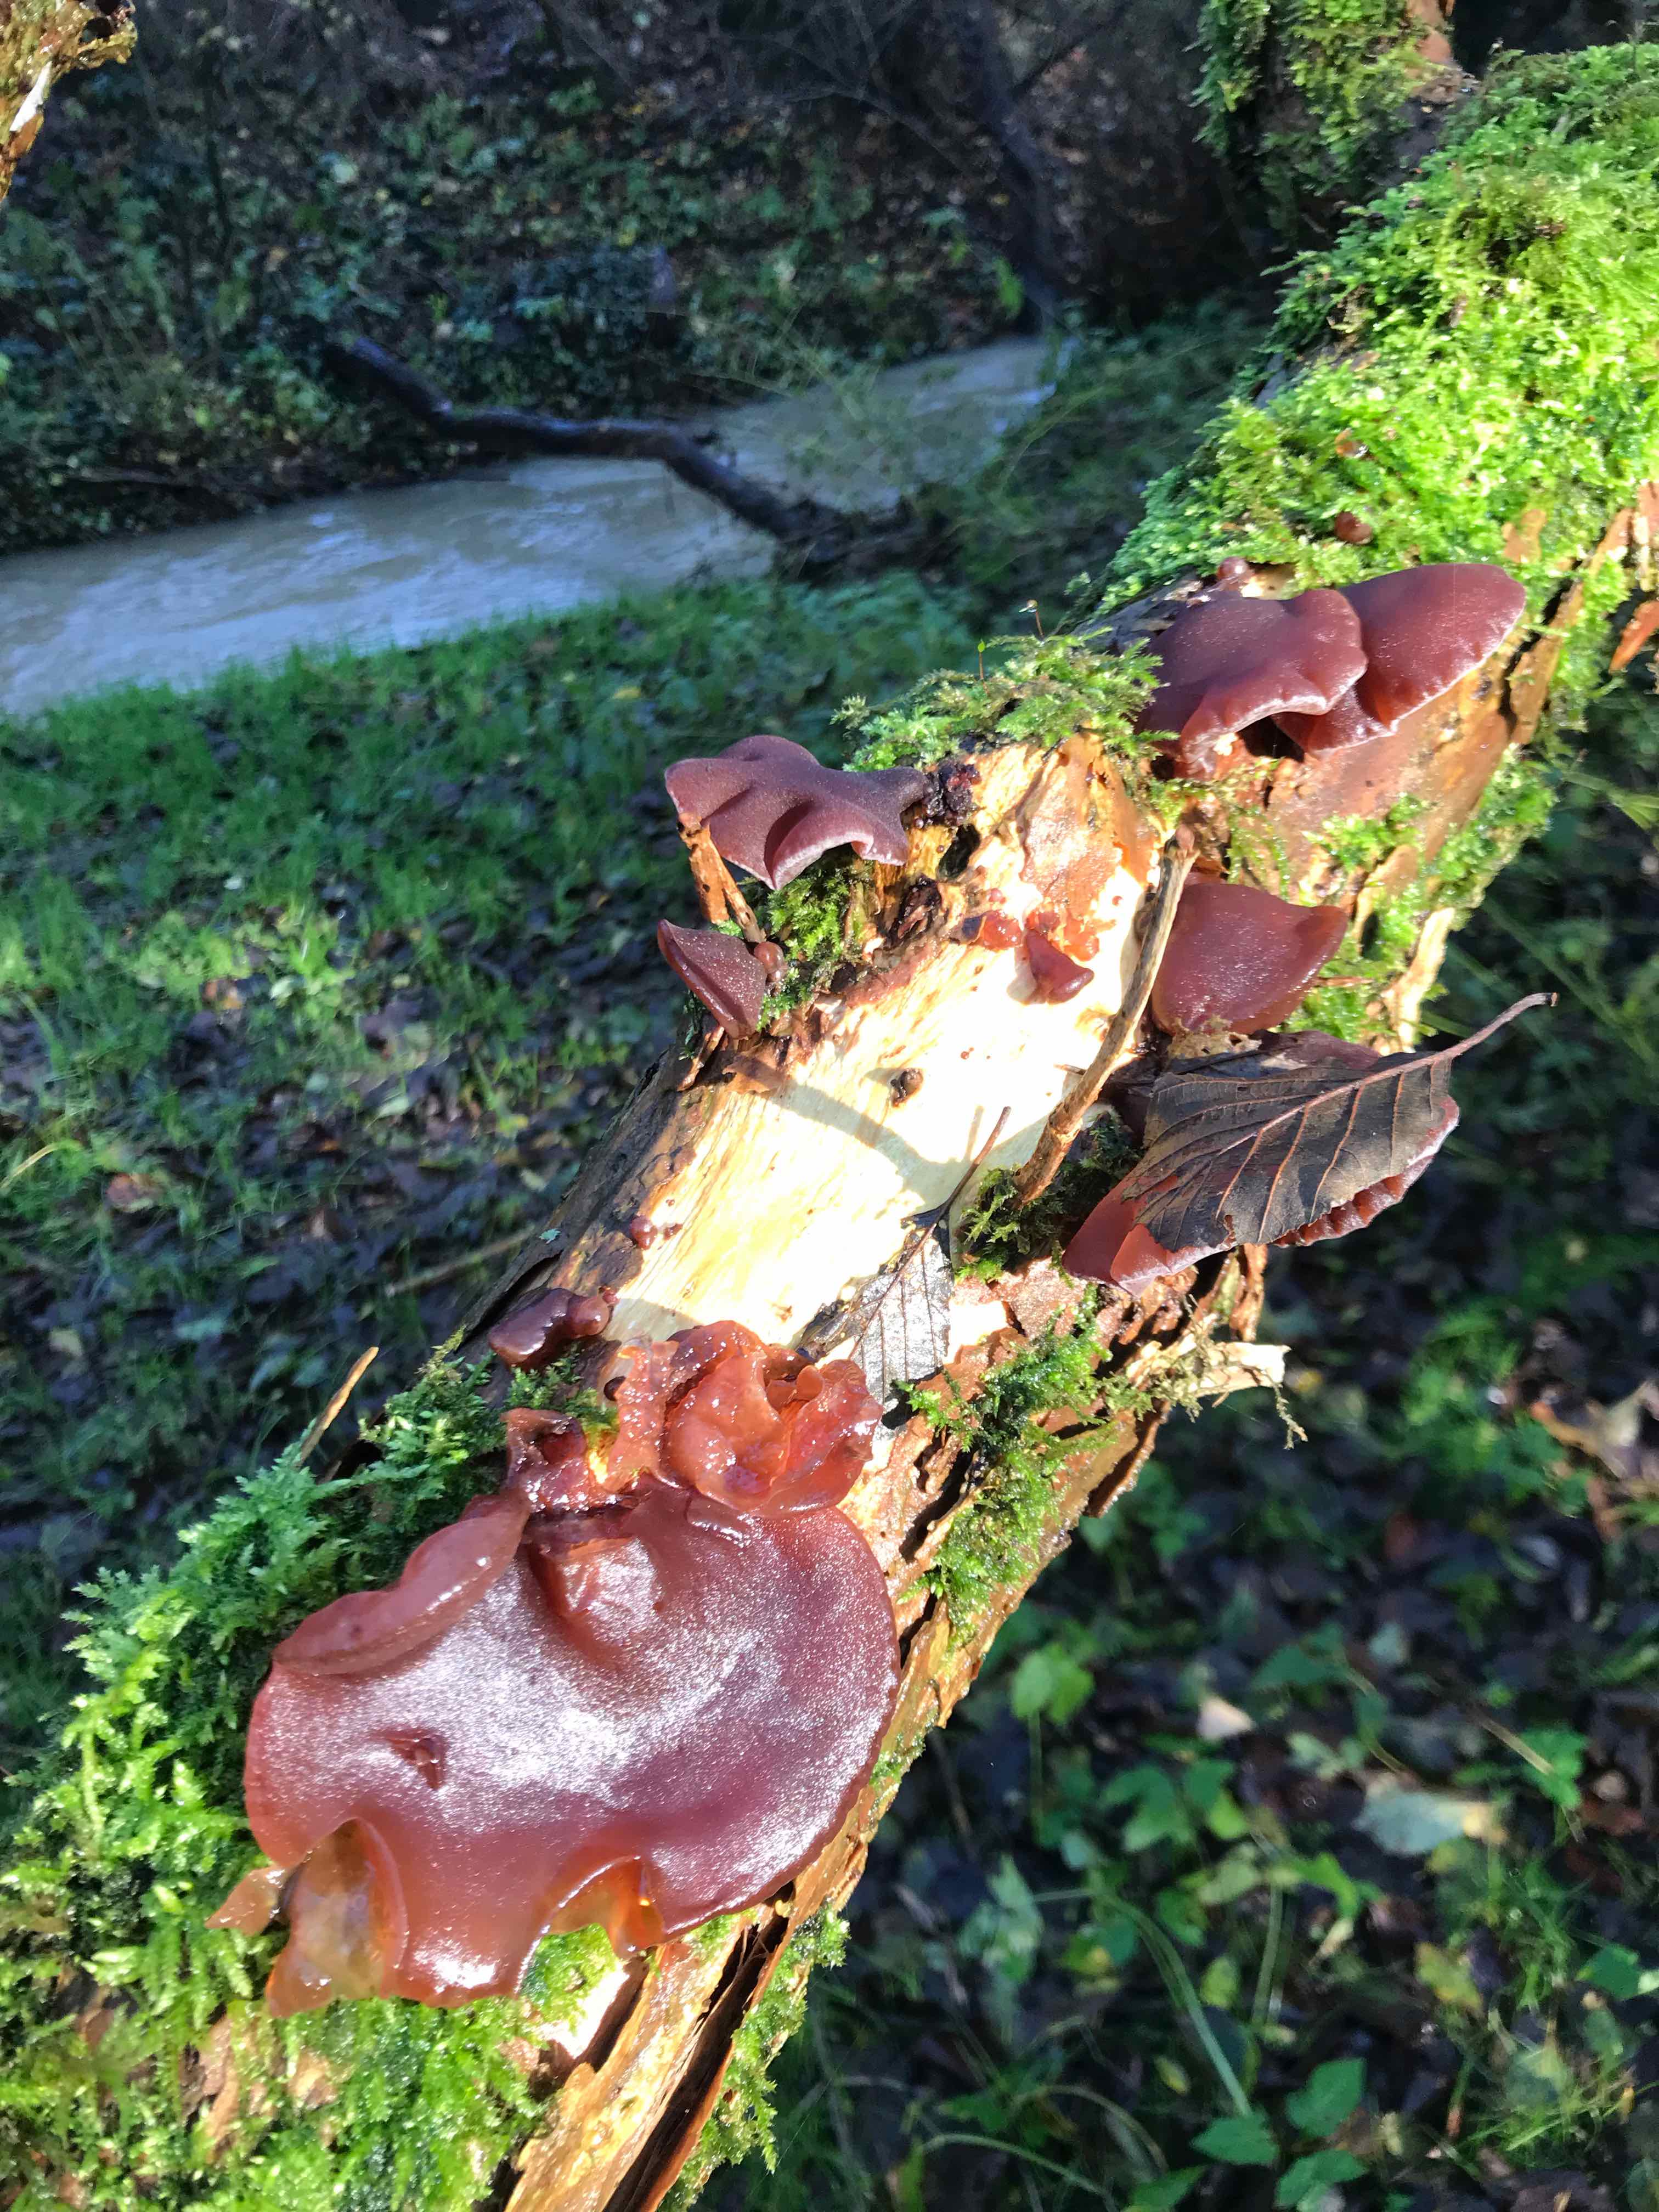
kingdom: Fungi
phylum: Basidiomycota
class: Agaricomycetes
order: Auriculariales
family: Auriculariaceae
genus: Auricularia
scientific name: Auricularia auricula-judae
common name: almindelig judasøre
